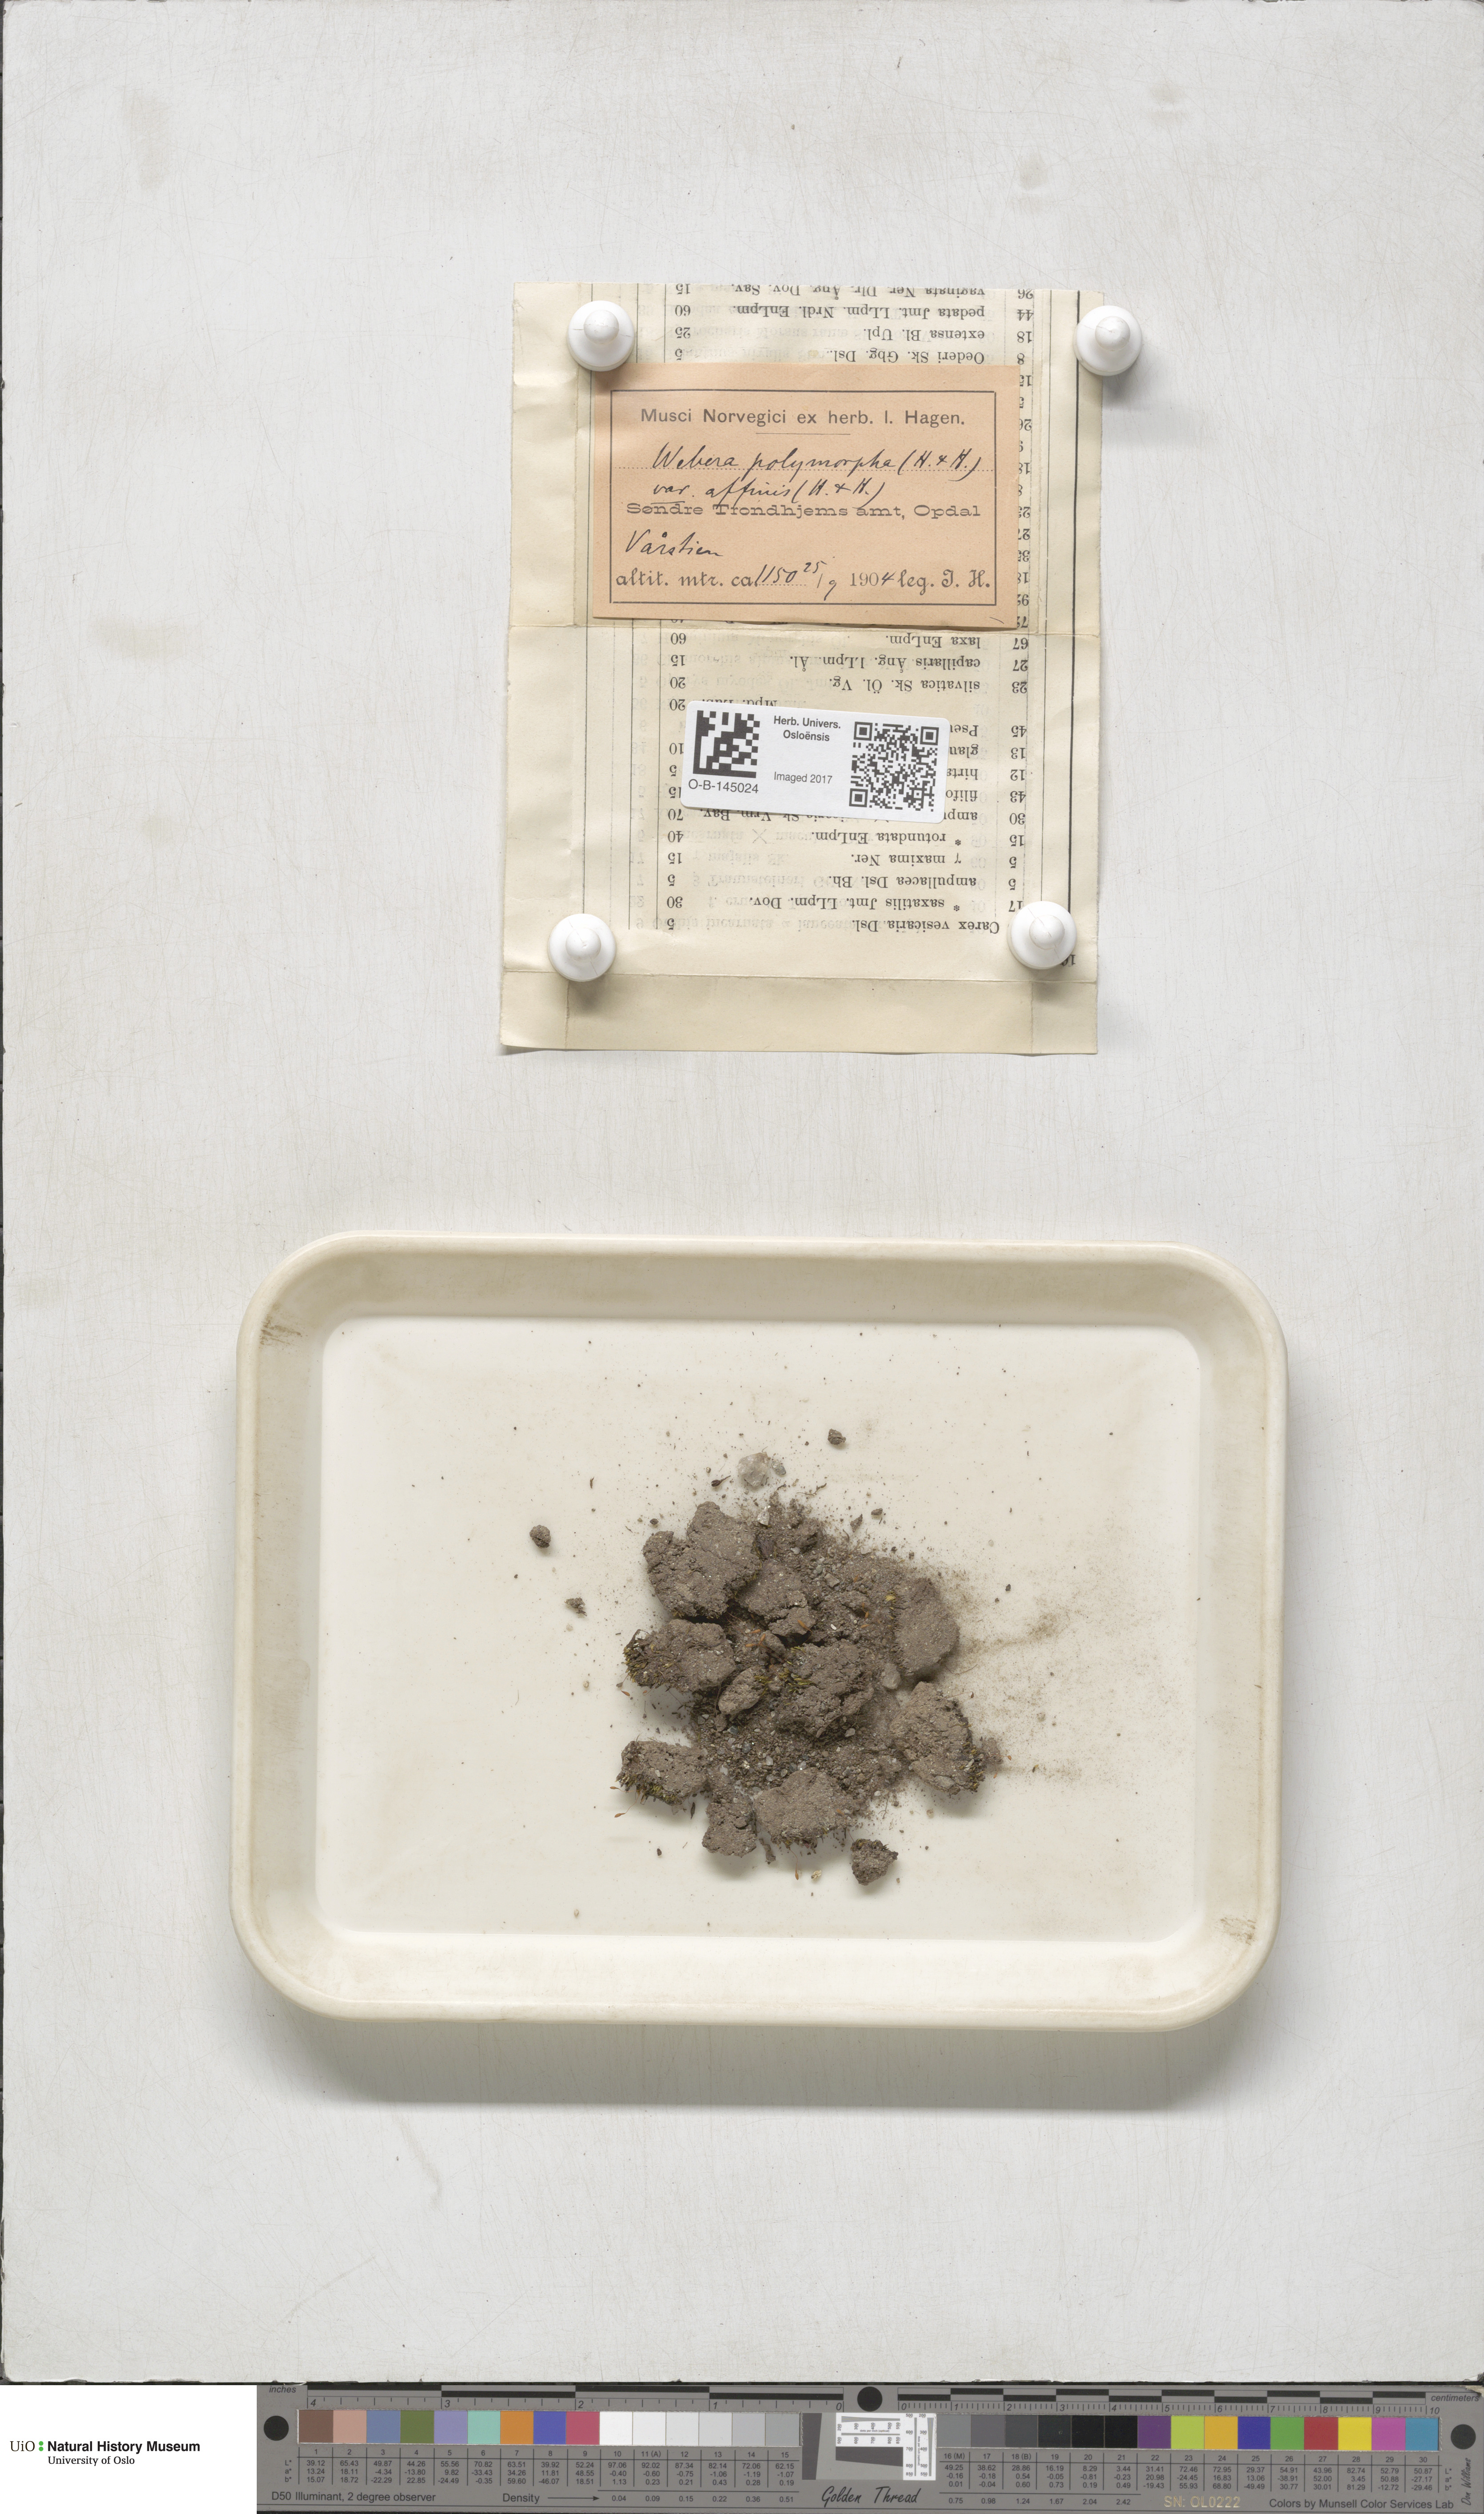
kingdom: Plantae
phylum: Bryophyta
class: Bryopsida
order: Bryales
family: Mniaceae
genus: Pohlia
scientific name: Pohlia elongata
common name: Long-fruited thread-moss
